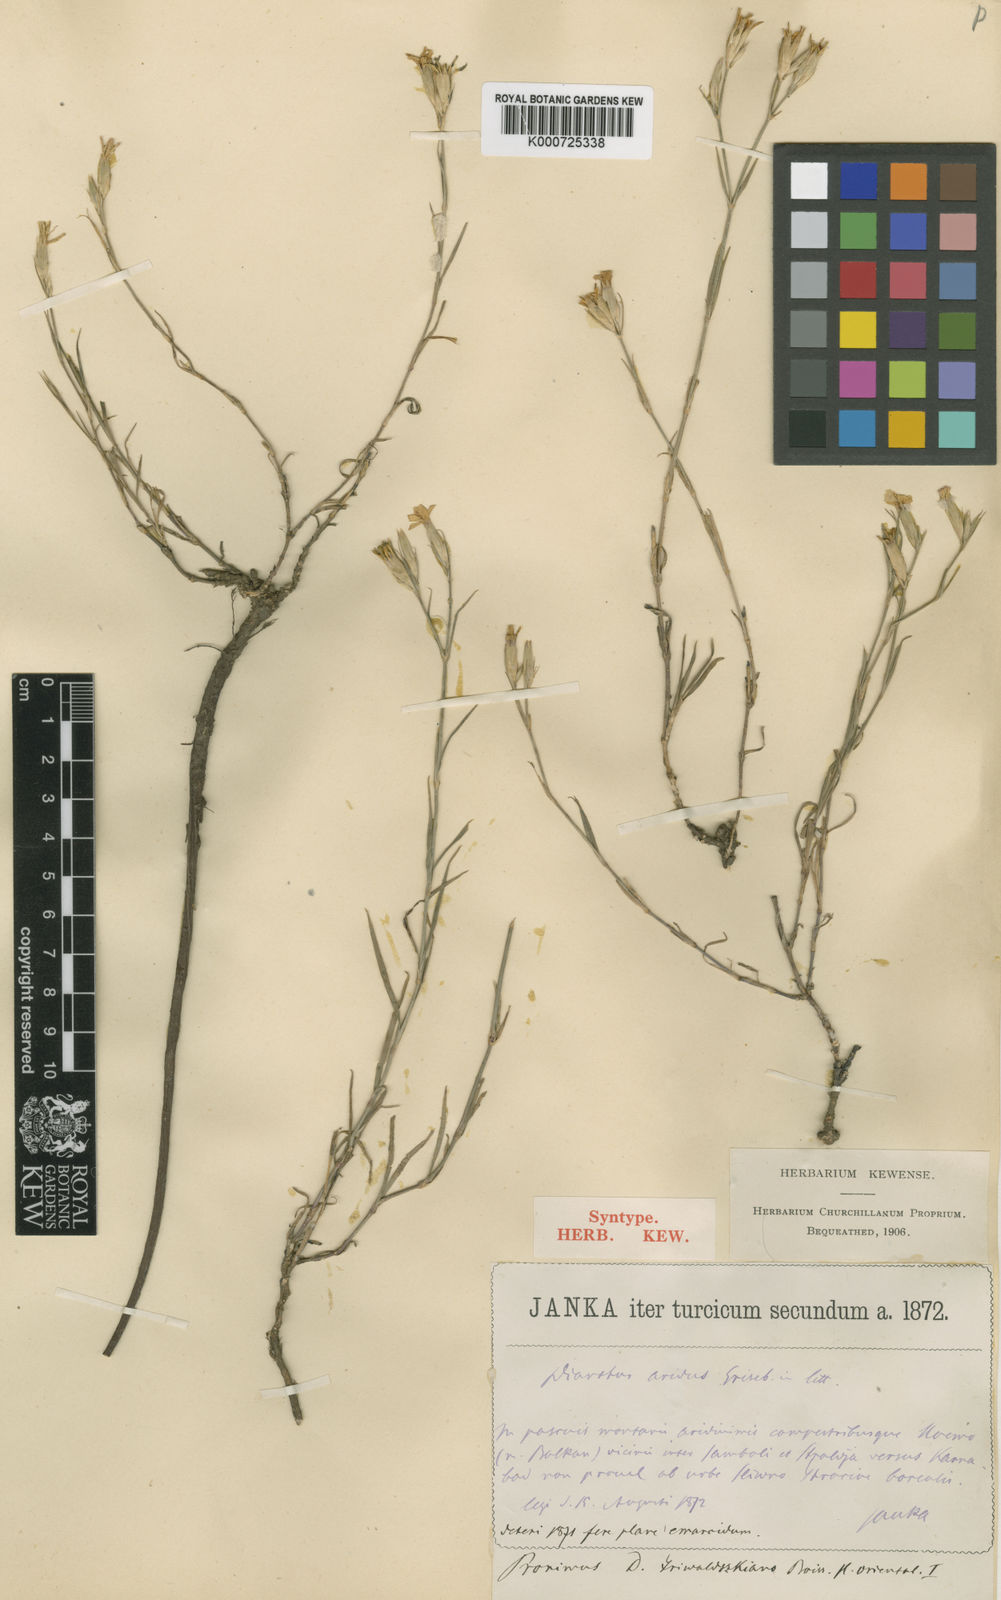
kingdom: Plantae
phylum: Tracheophyta
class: Magnoliopsida
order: Caryophyllales
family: Caryophyllaceae
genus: Dianthus
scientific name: Dianthus pallens
